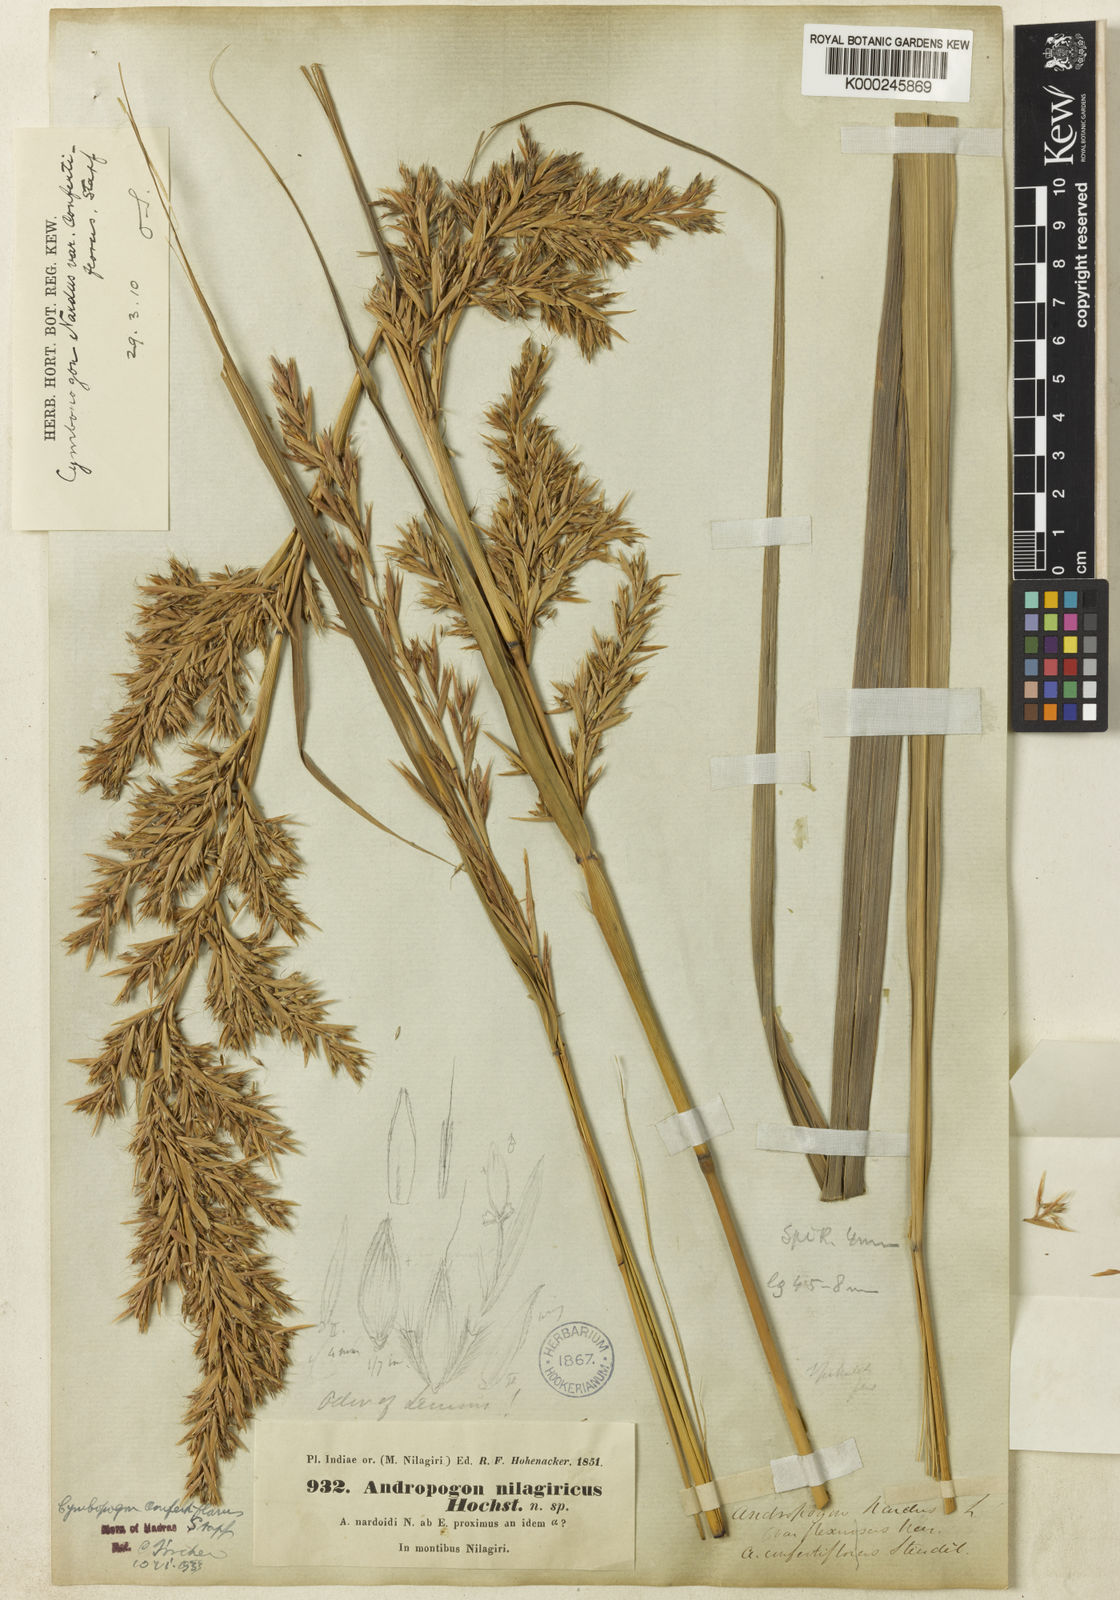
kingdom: Plantae
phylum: Tracheophyta
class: Liliopsida
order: Poales
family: Poaceae
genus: Cymbopogon
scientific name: Cymbopogon nardus
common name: Giant turpentine grass
